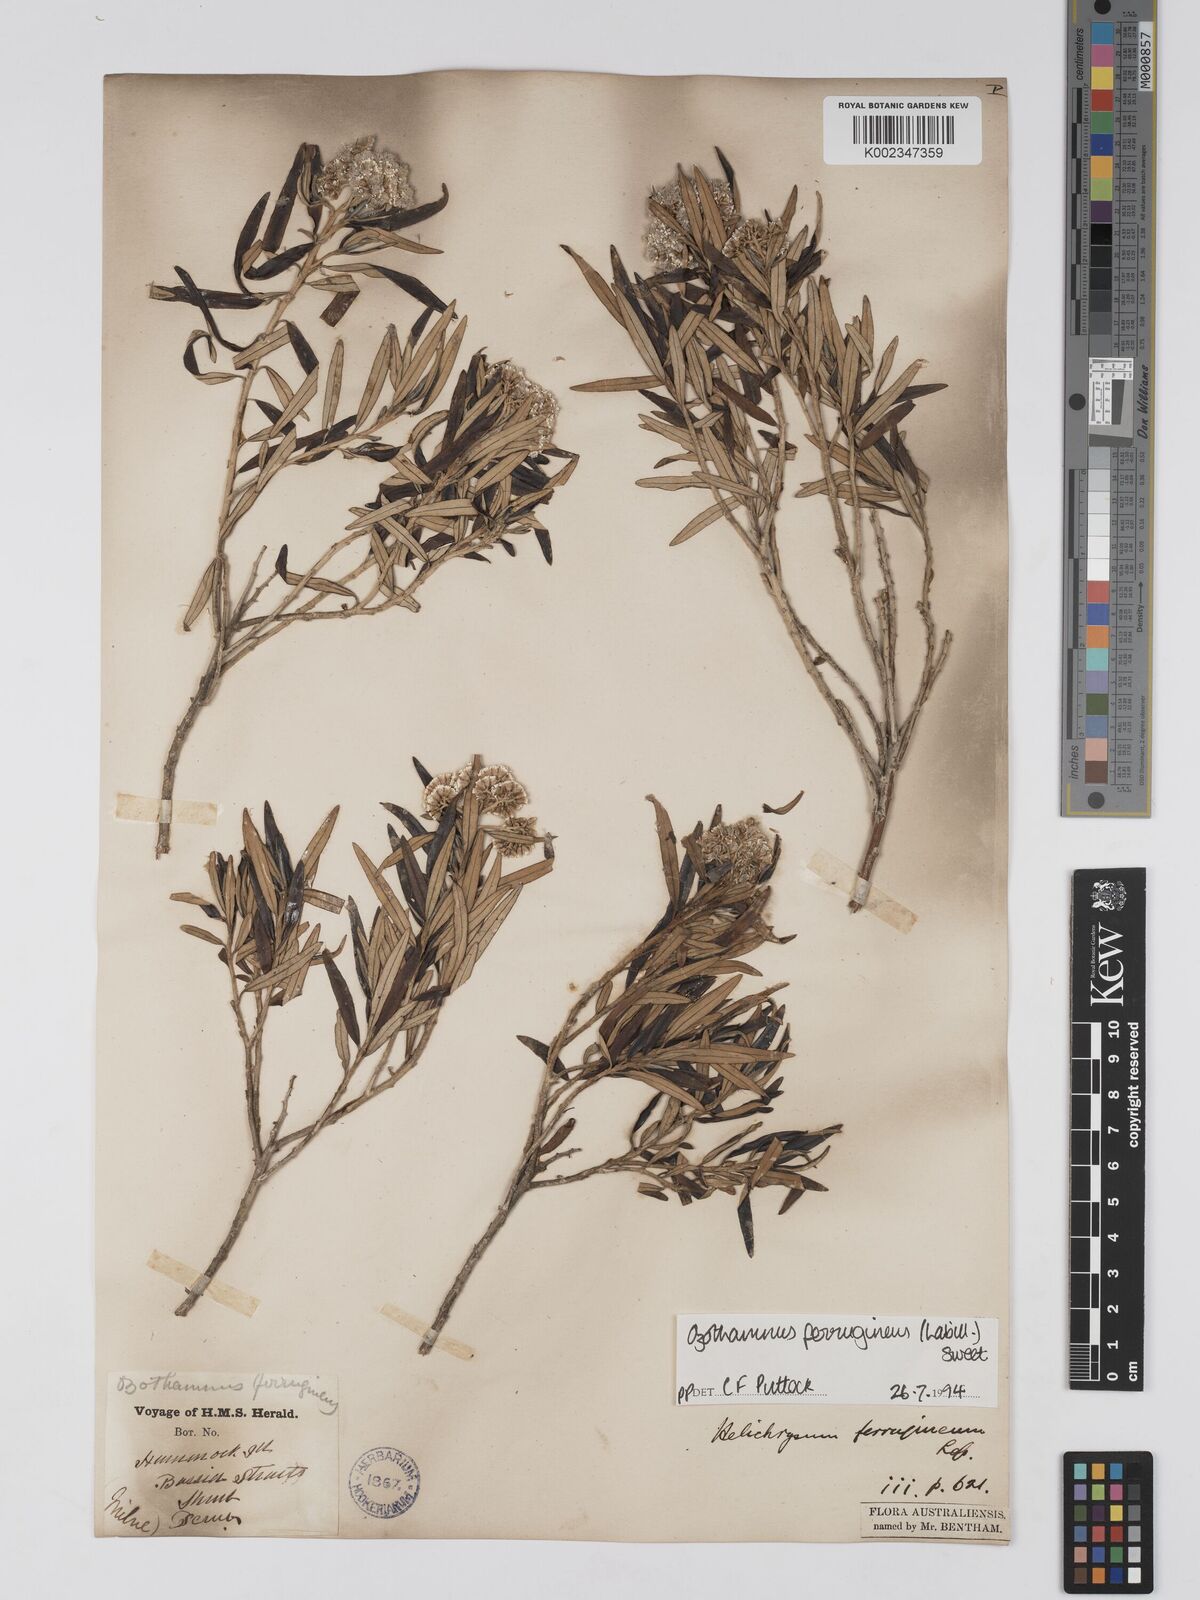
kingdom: Plantae
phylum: Tracheophyta
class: Magnoliopsida
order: Asterales
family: Asteraceae
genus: Ozothamnus
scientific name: Ozothamnus argophyllus
